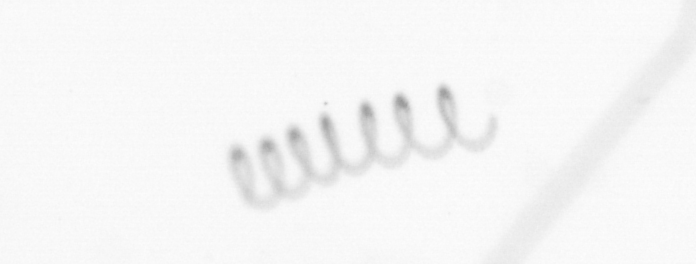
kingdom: Chromista
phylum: Ochrophyta
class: Bacillariophyceae
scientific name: Bacillariophyceae
